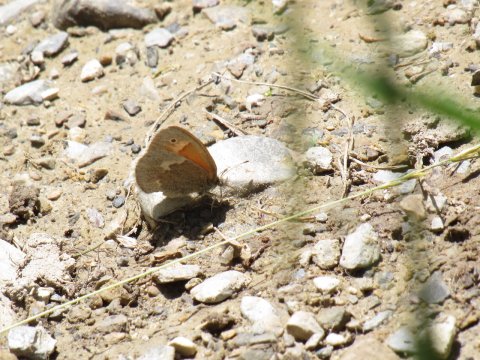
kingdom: Animalia
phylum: Arthropoda
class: Insecta
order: Lepidoptera
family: Nymphalidae
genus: Coenonympha
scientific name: Coenonympha tullia
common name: Large Heath
